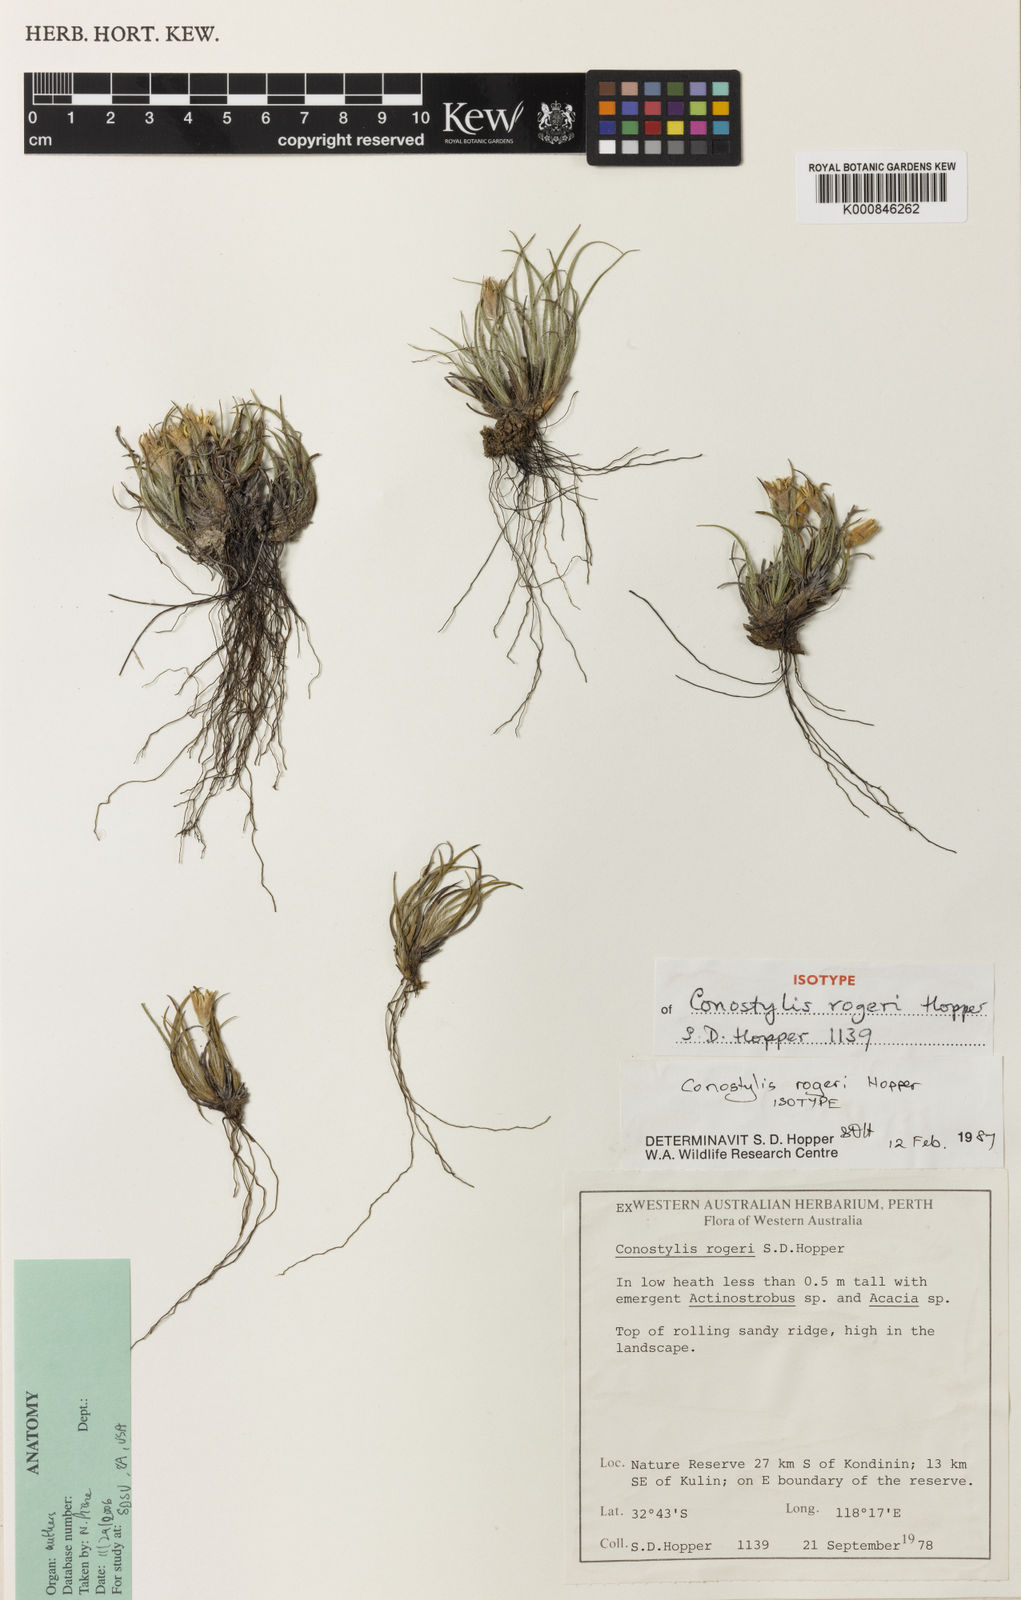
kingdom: Plantae
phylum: Tracheophyta
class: Liliopsida
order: Commelinales
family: Haemodoraceae
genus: Conostylis
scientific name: Conostylis rogeri
